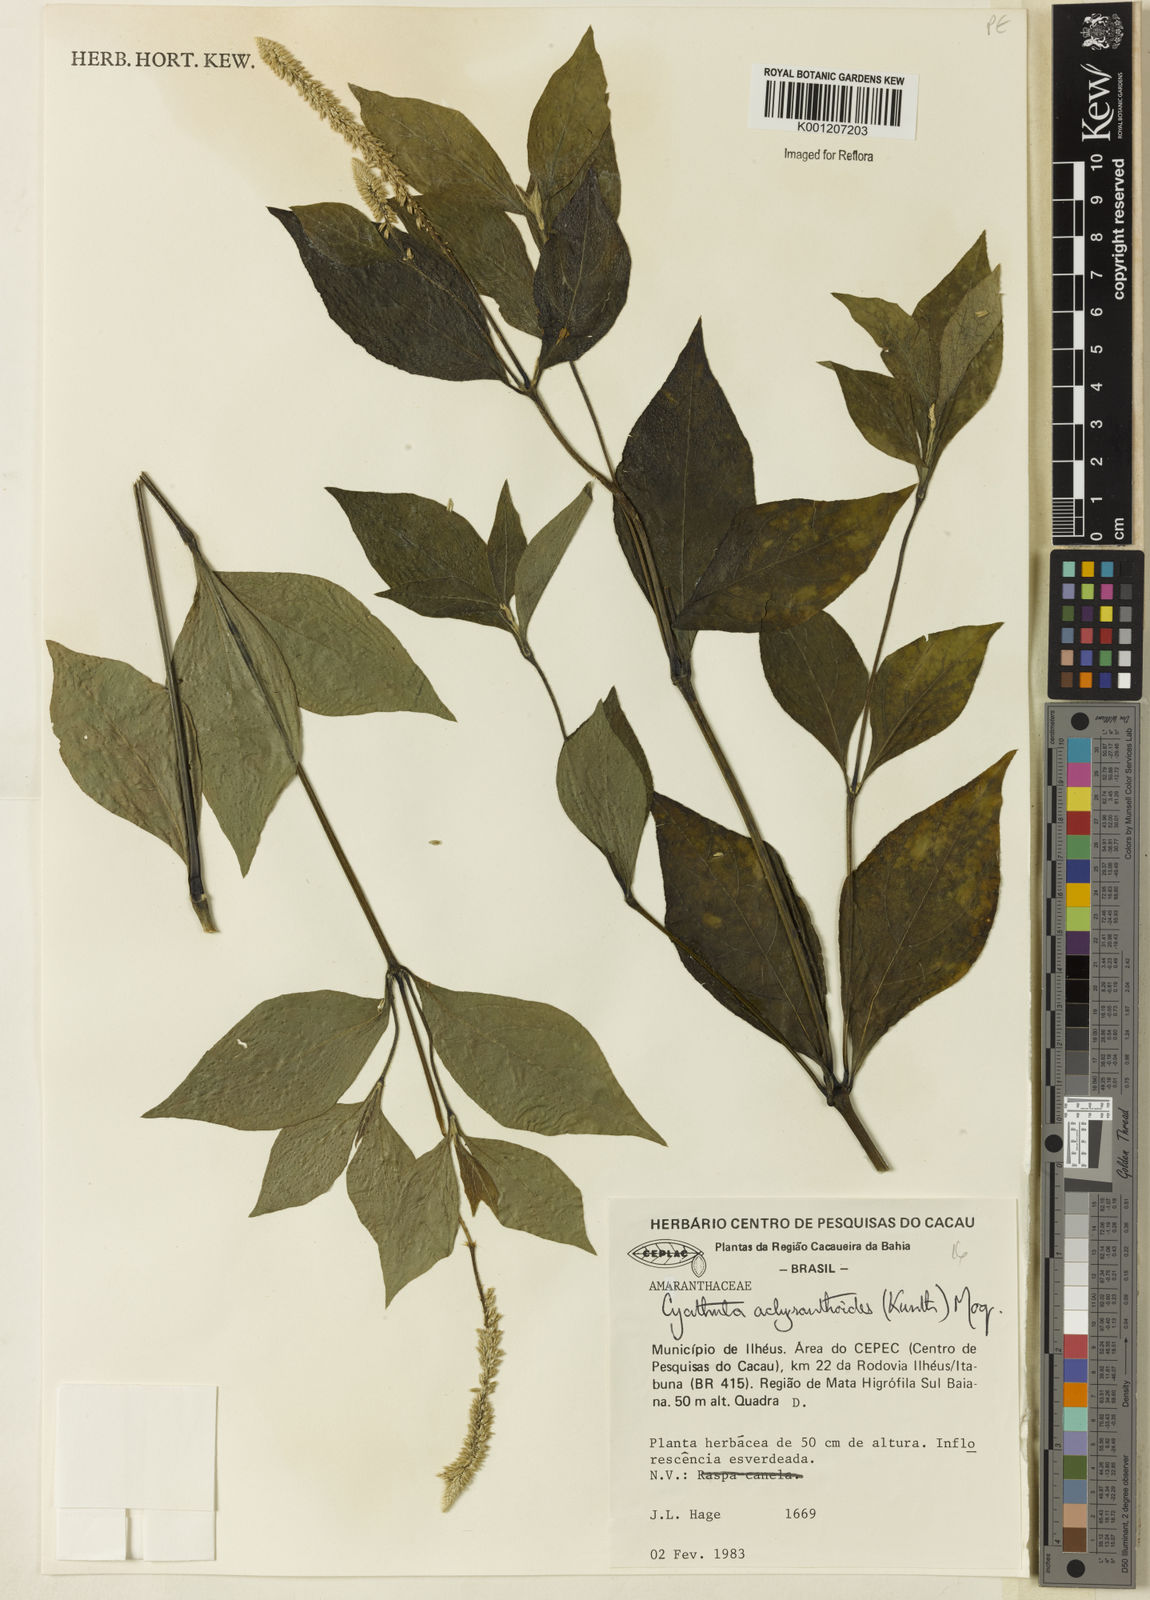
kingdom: Plantae
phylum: Tracheophyta
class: Magnoliopsida
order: Caryophyllales
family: Amaranthaceae
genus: Cyathula
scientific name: Cyathula achyranthoides
